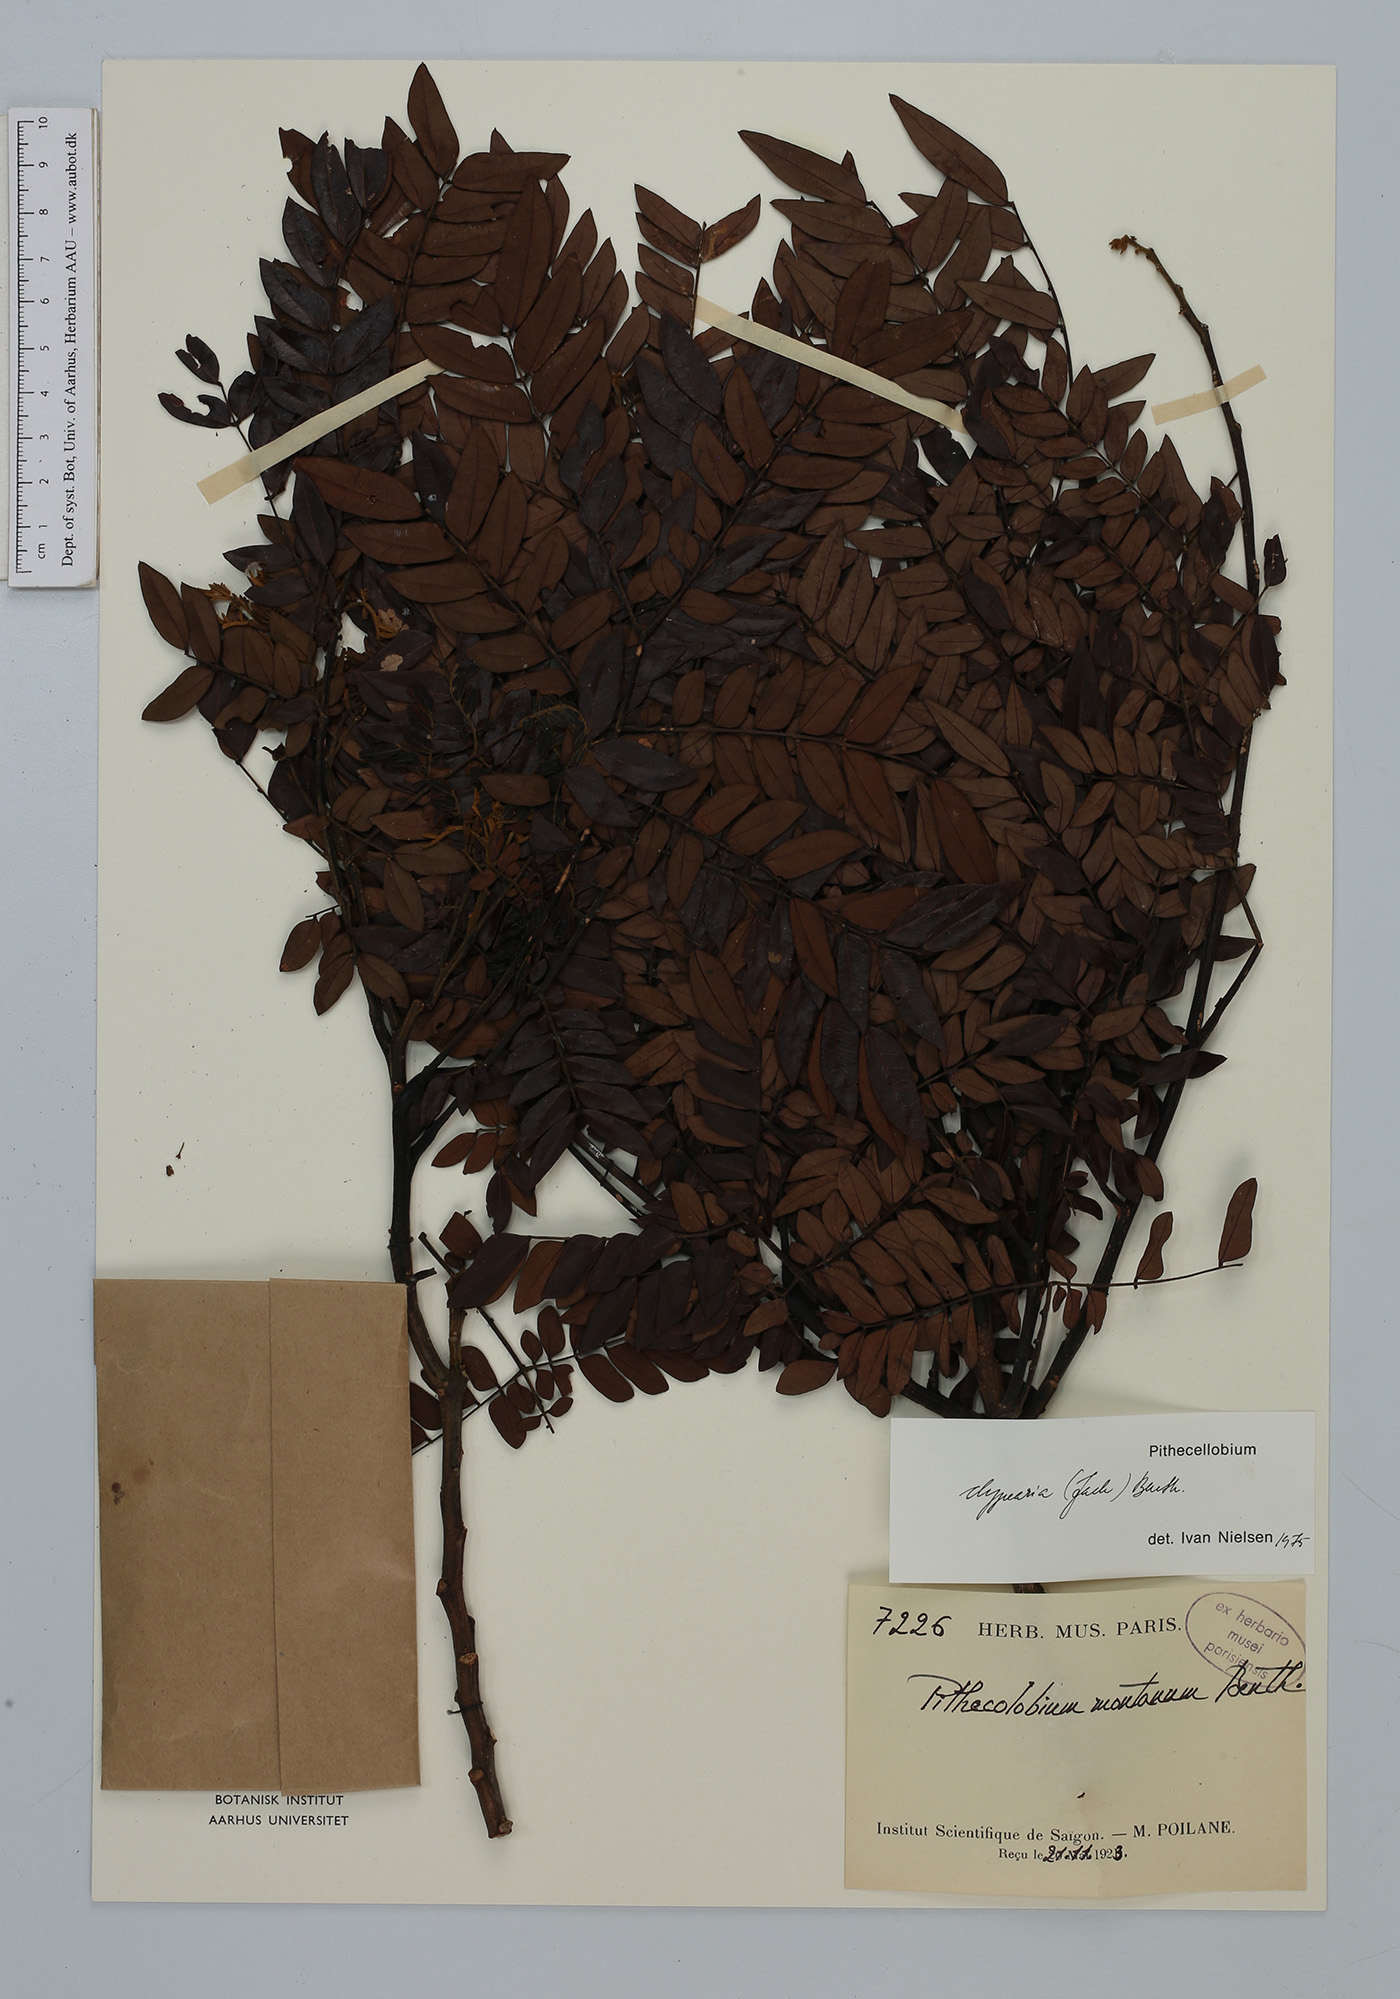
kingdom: Plantae
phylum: Tracheophyta
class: Magnoliopsida
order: Fabales
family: Fabaceae
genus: Archidendron
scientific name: Archidendron clypearia
